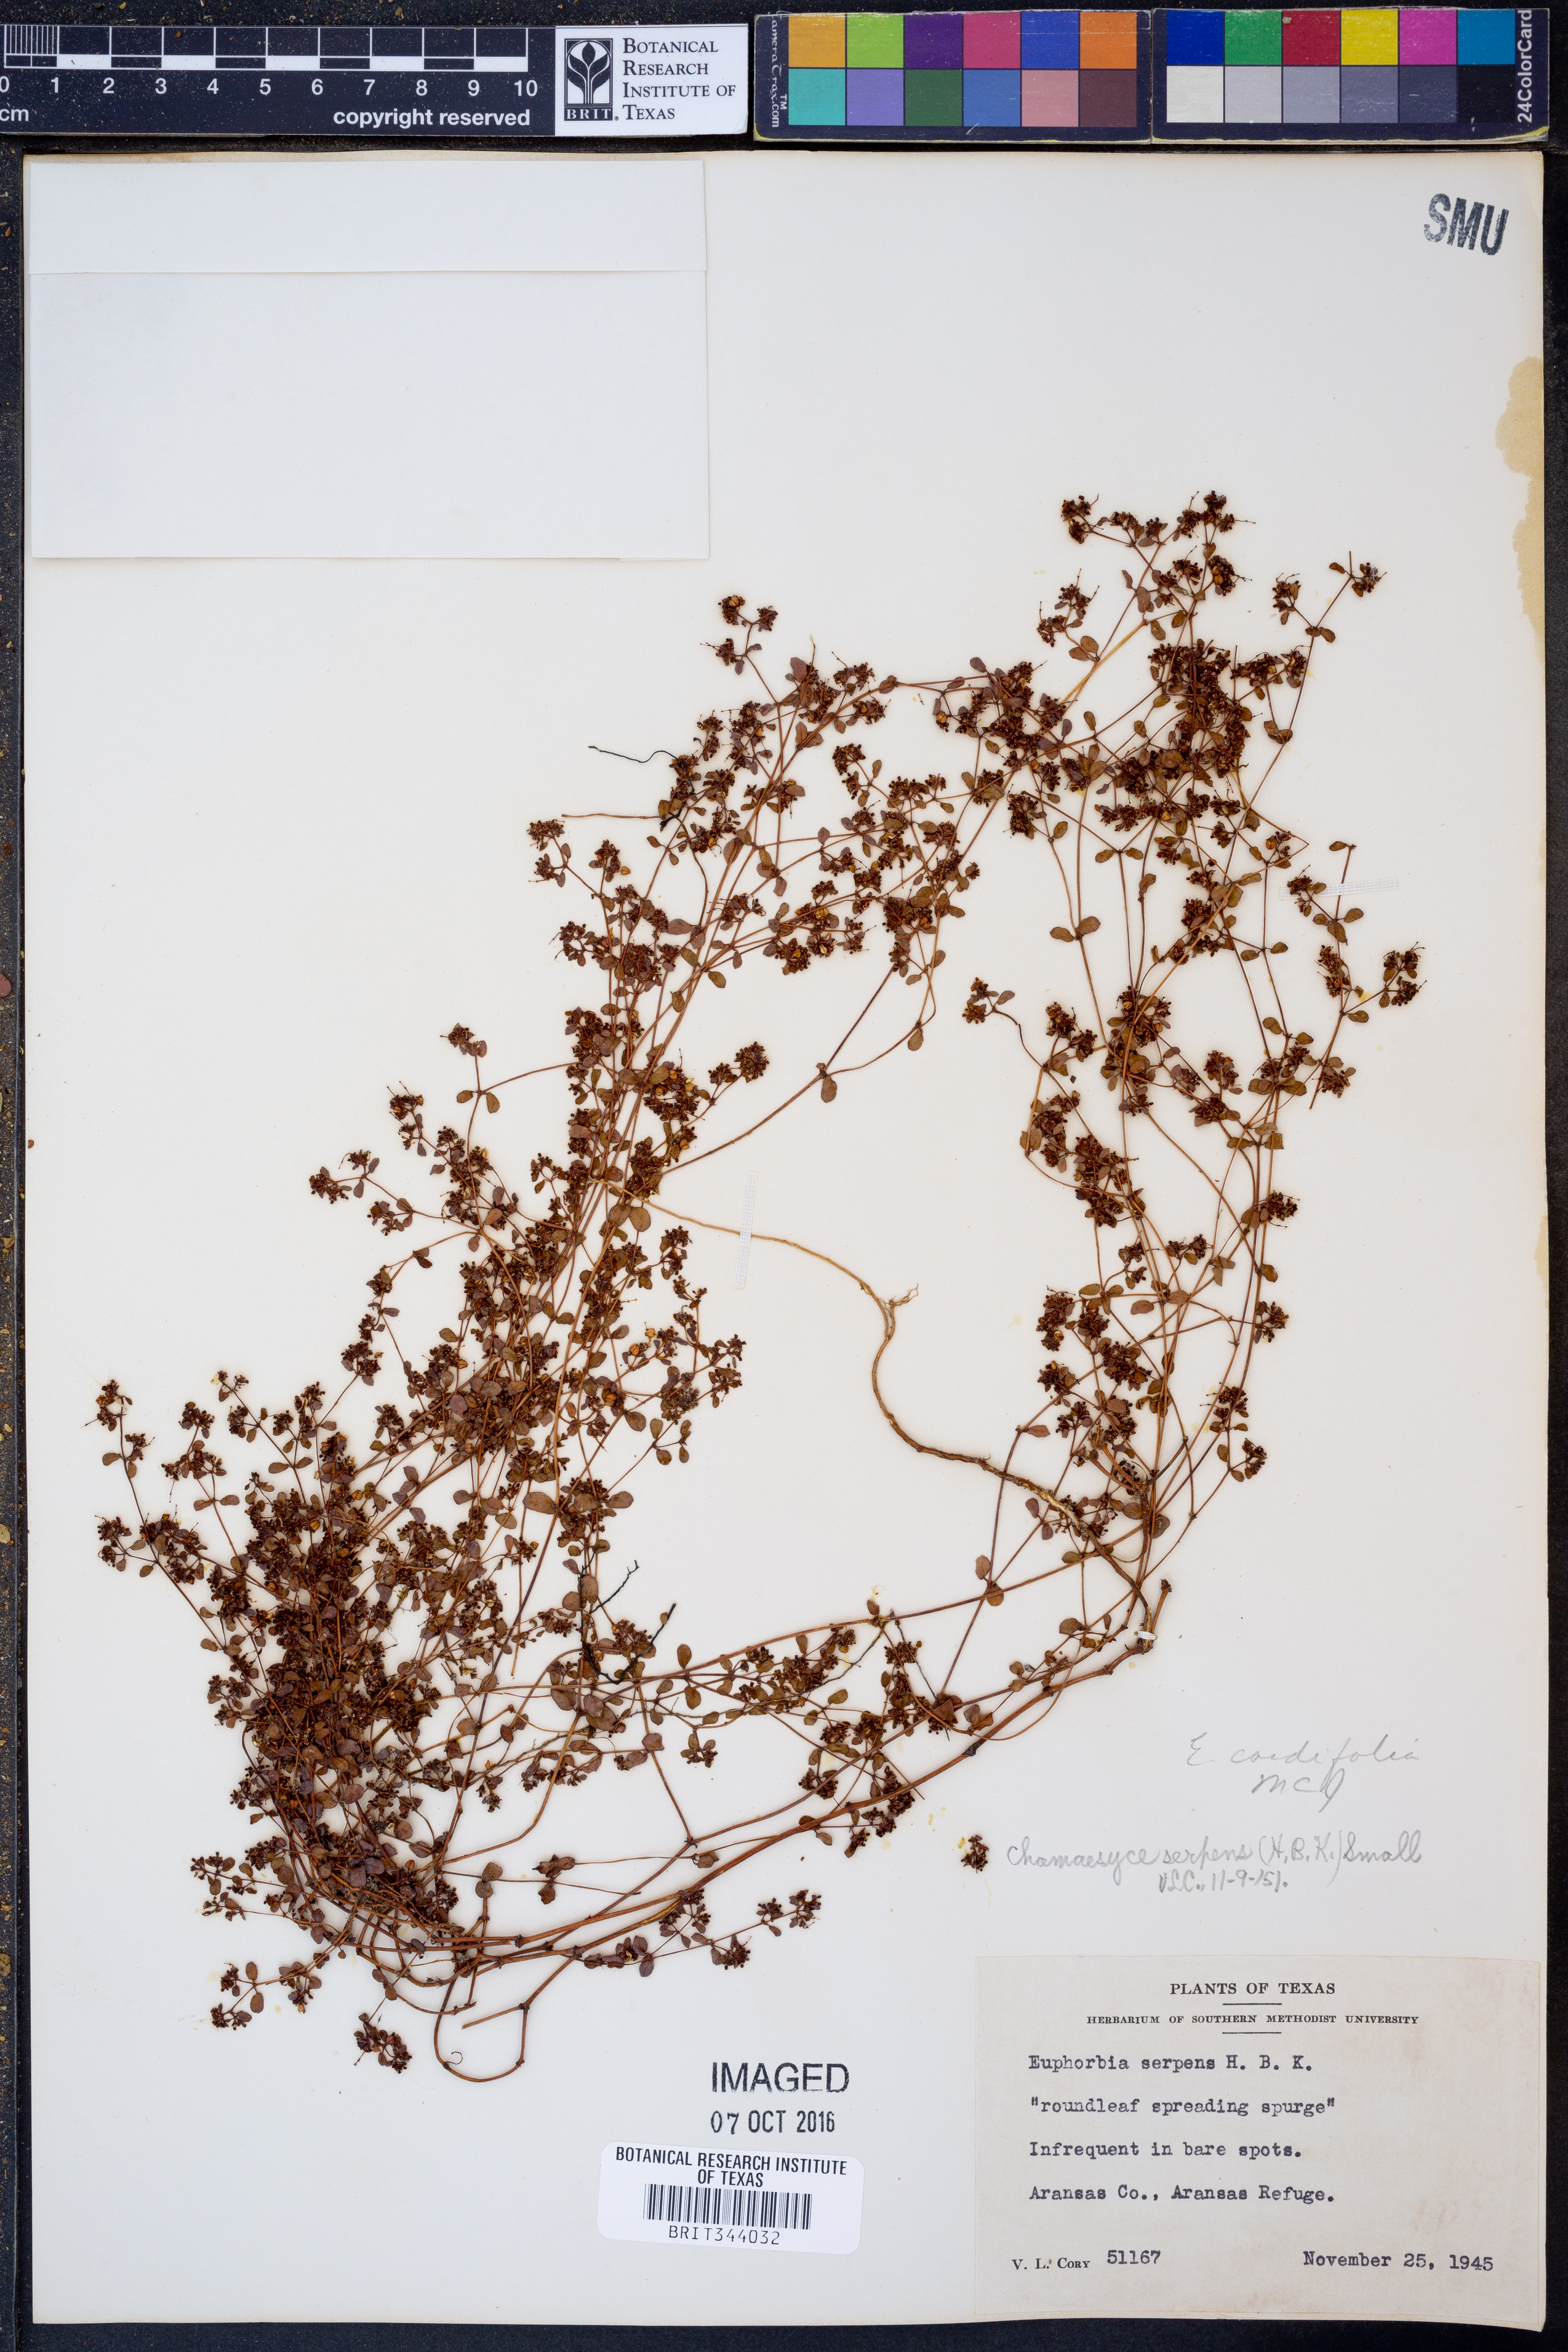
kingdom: Plantae
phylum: Tracheophyta
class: Magnoliopsida
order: Malpighiales
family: Euphorbiaceae
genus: Euphorbia
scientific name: Euphorbia cordifolia
